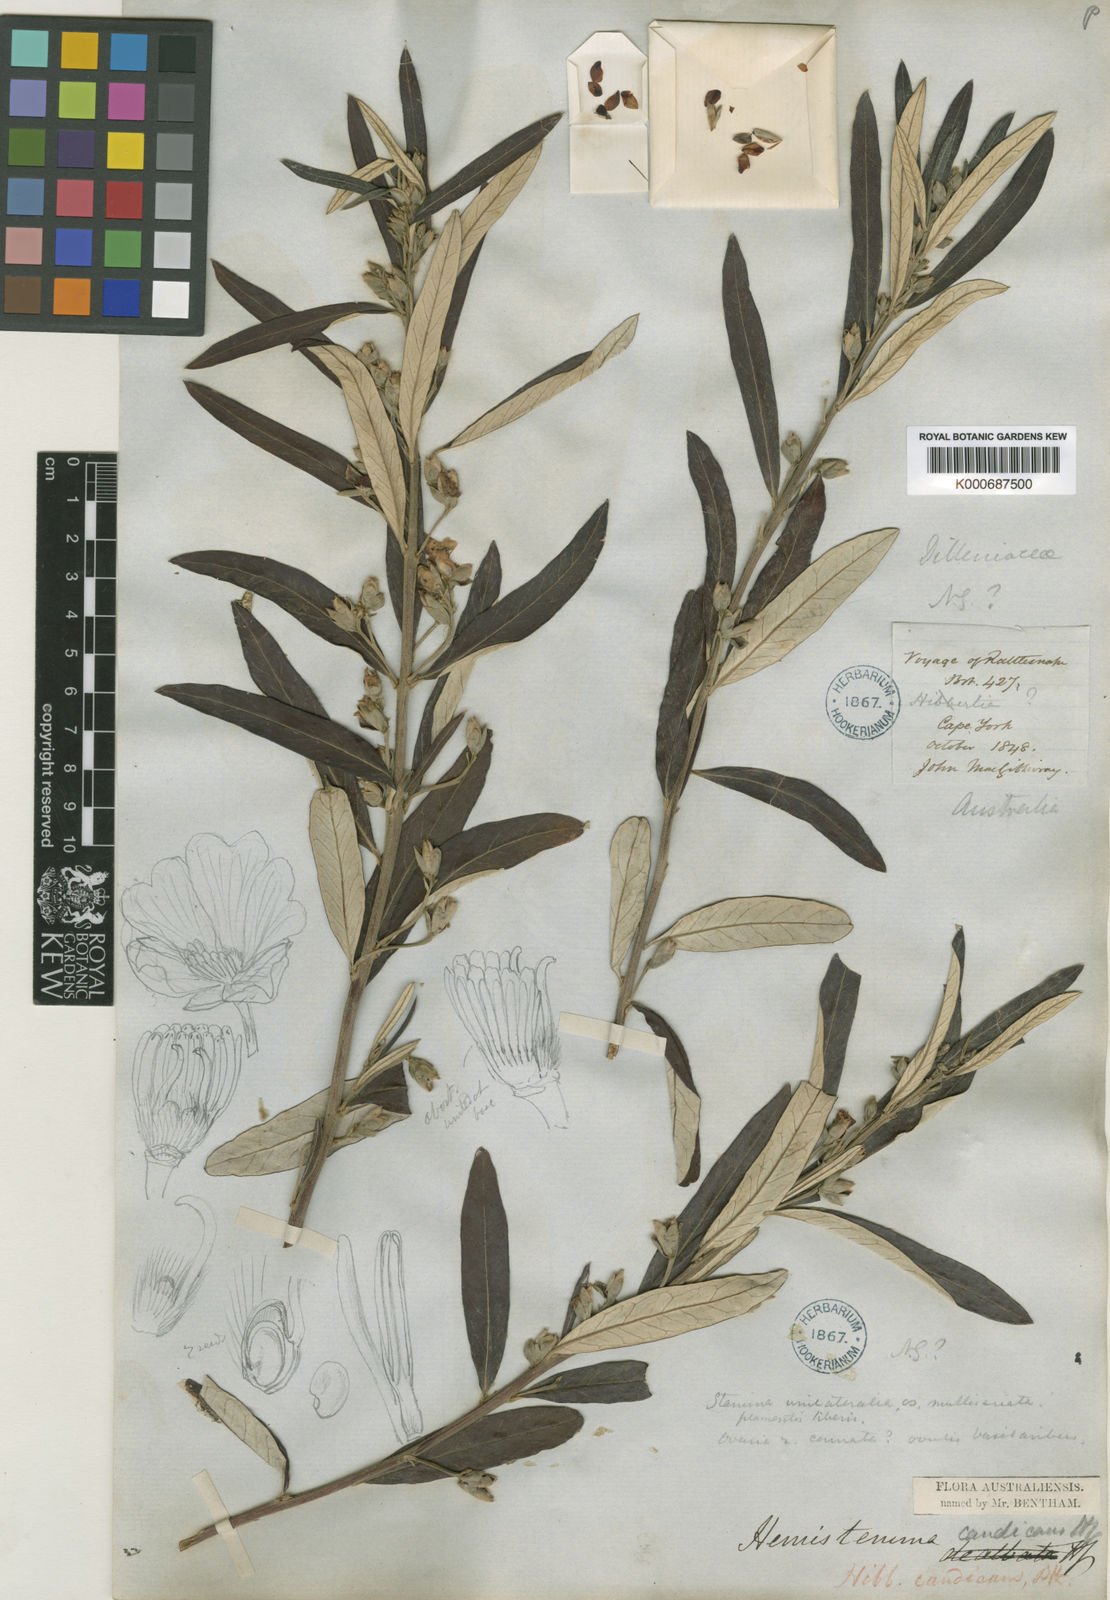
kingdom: Plantae
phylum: Tracheophyta
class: Magnoliopsida
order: Dilleniales
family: Dilleniaceae
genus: Hibbertia
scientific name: Hibbertia candicans
